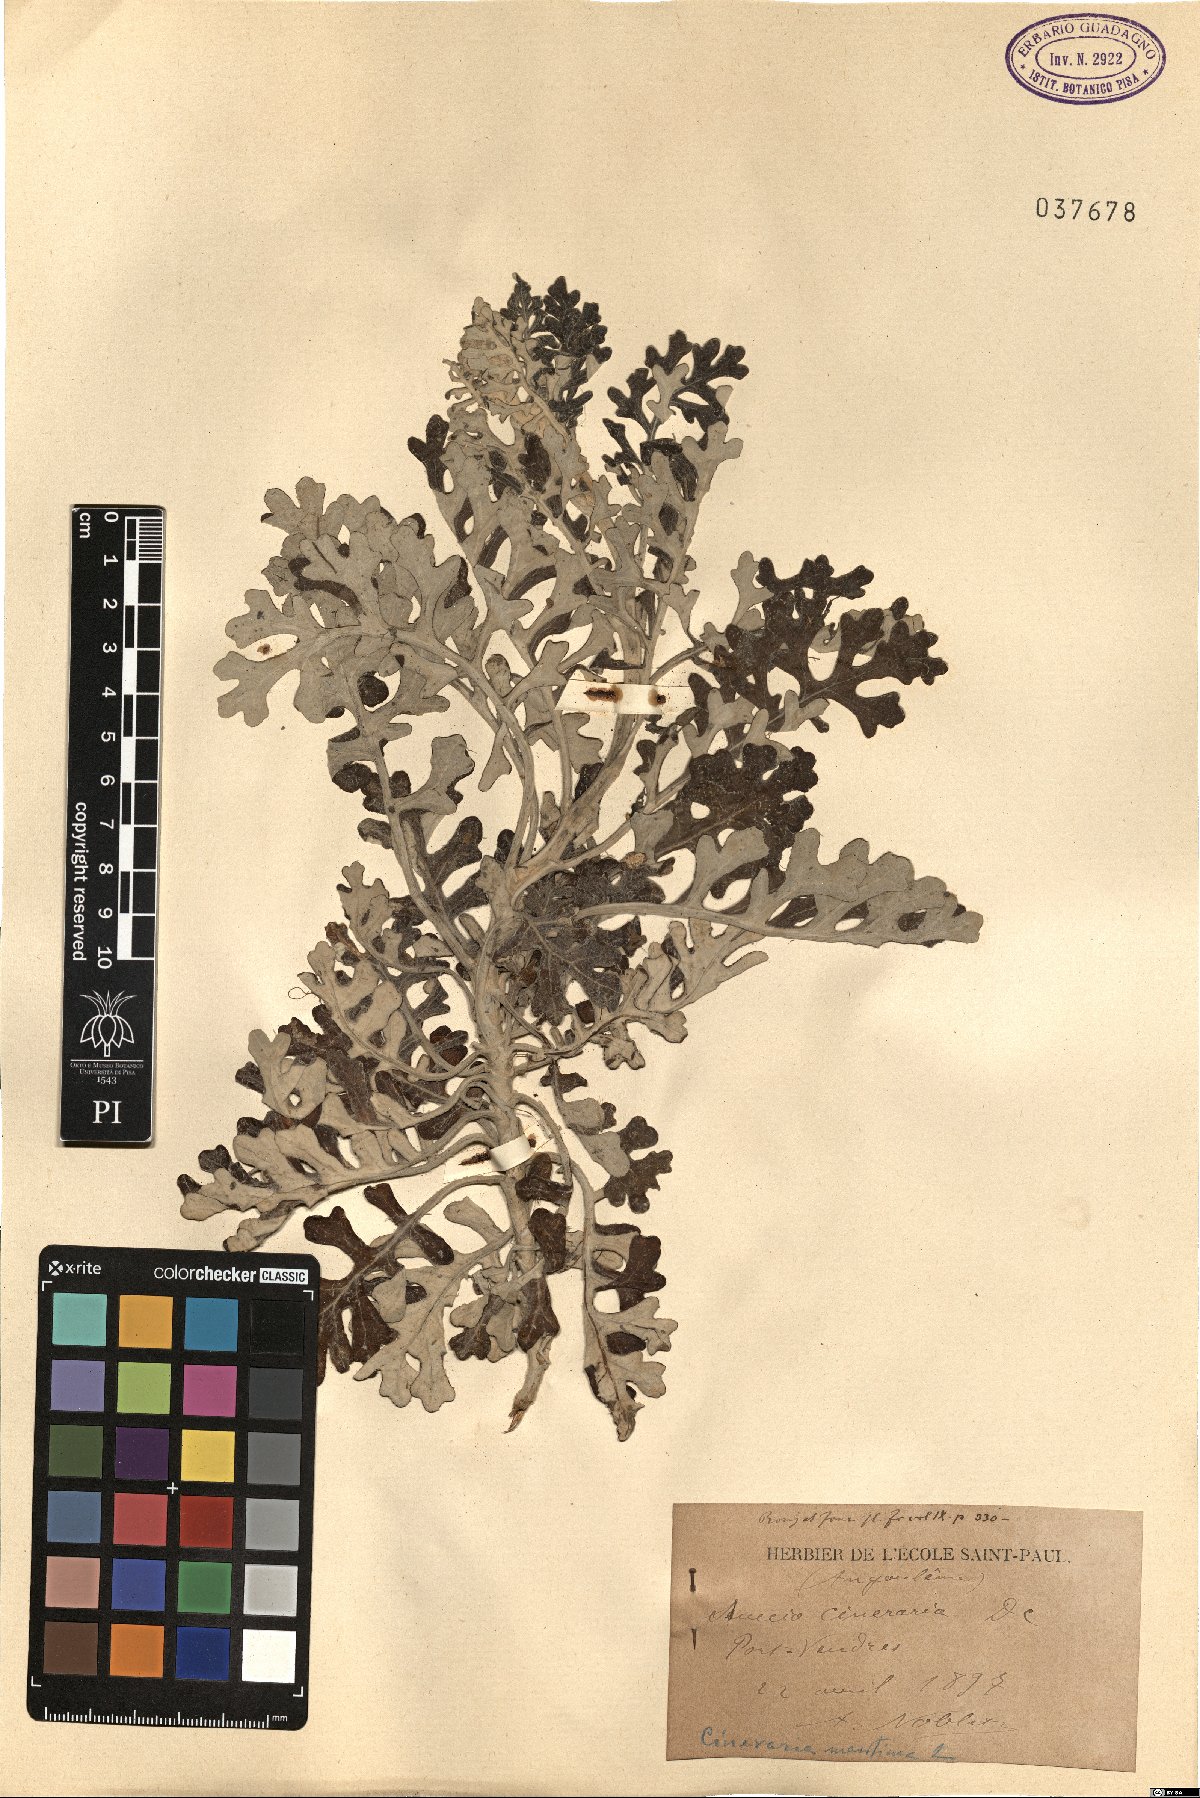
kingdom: Plantae
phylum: Tracheophyta
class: Magnoliopsida
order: Asterales
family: Asteraceae
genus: Jacobaea
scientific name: Jacobaea maritima
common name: Silver ragwort
